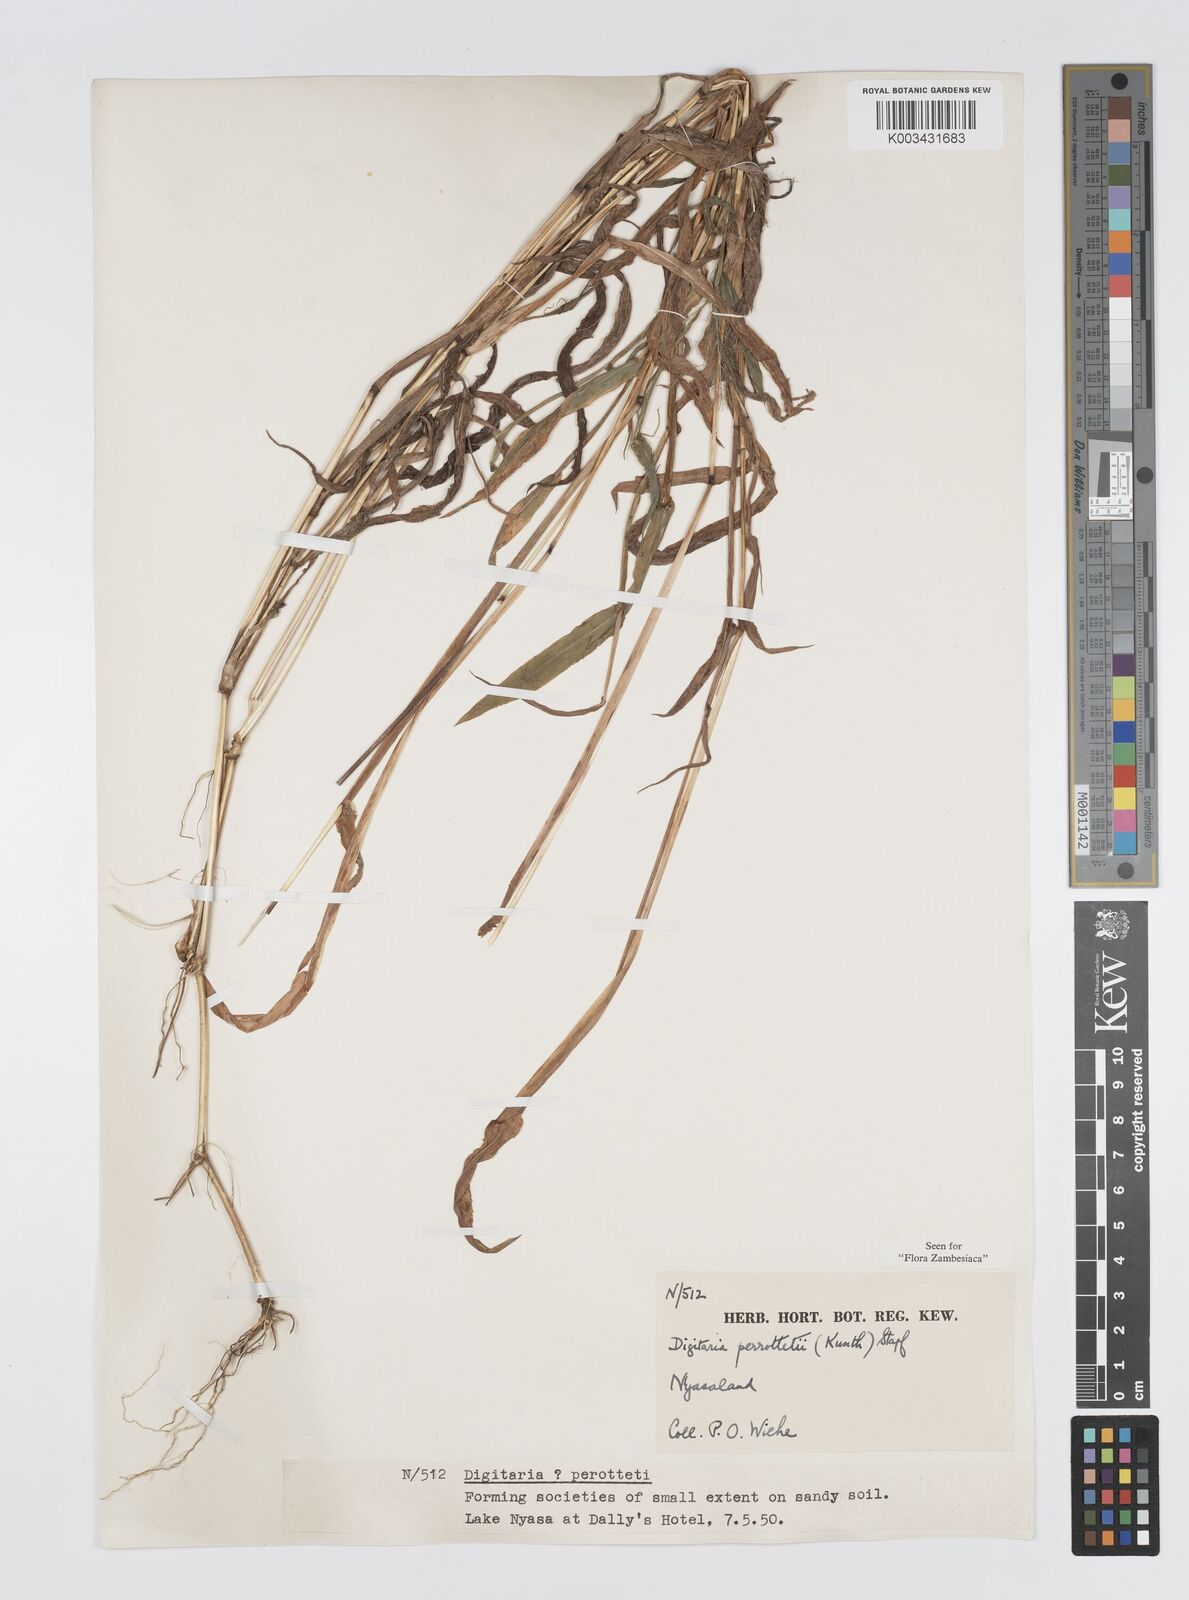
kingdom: Plantae
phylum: Tracheophyta
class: Liliopsida
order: Poales
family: Poaceae
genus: Digitaria
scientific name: Digitaria perrottetii
